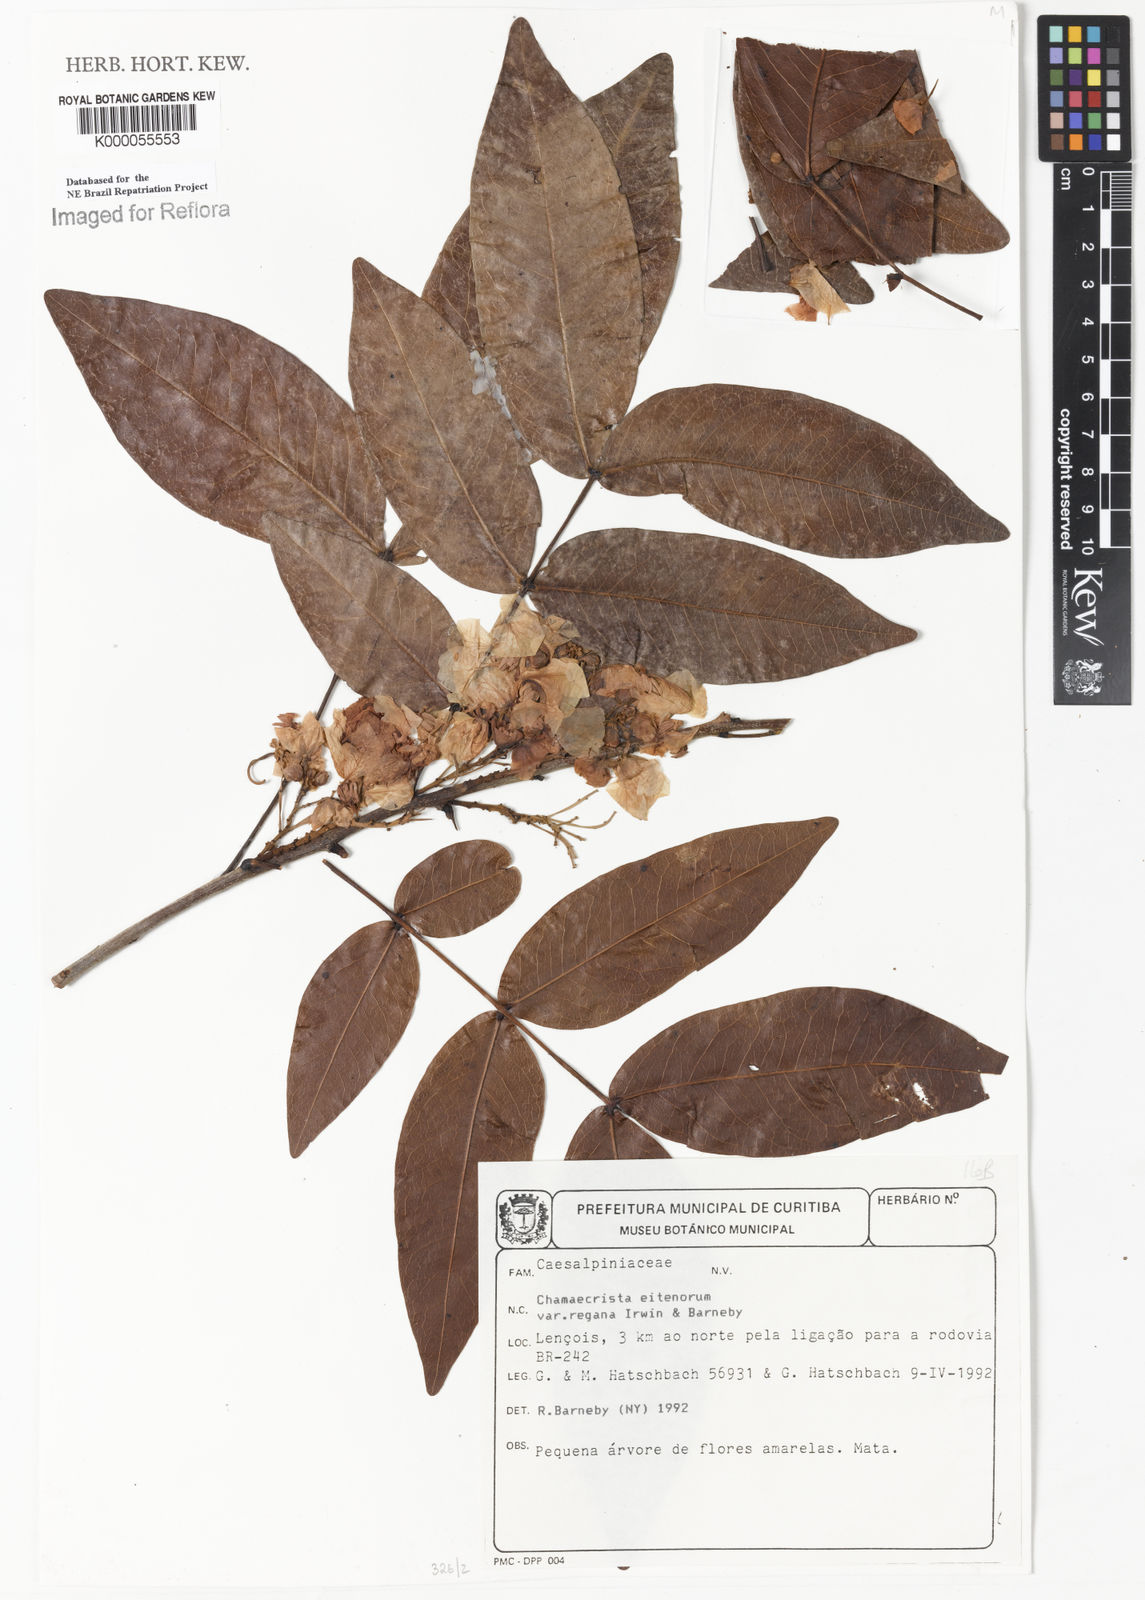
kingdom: Plantae
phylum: Tracheophyta
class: Magnoliopsida
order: Fabales
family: Fabaceae
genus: Chamaecrista
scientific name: Chamaecrista eitenorum
